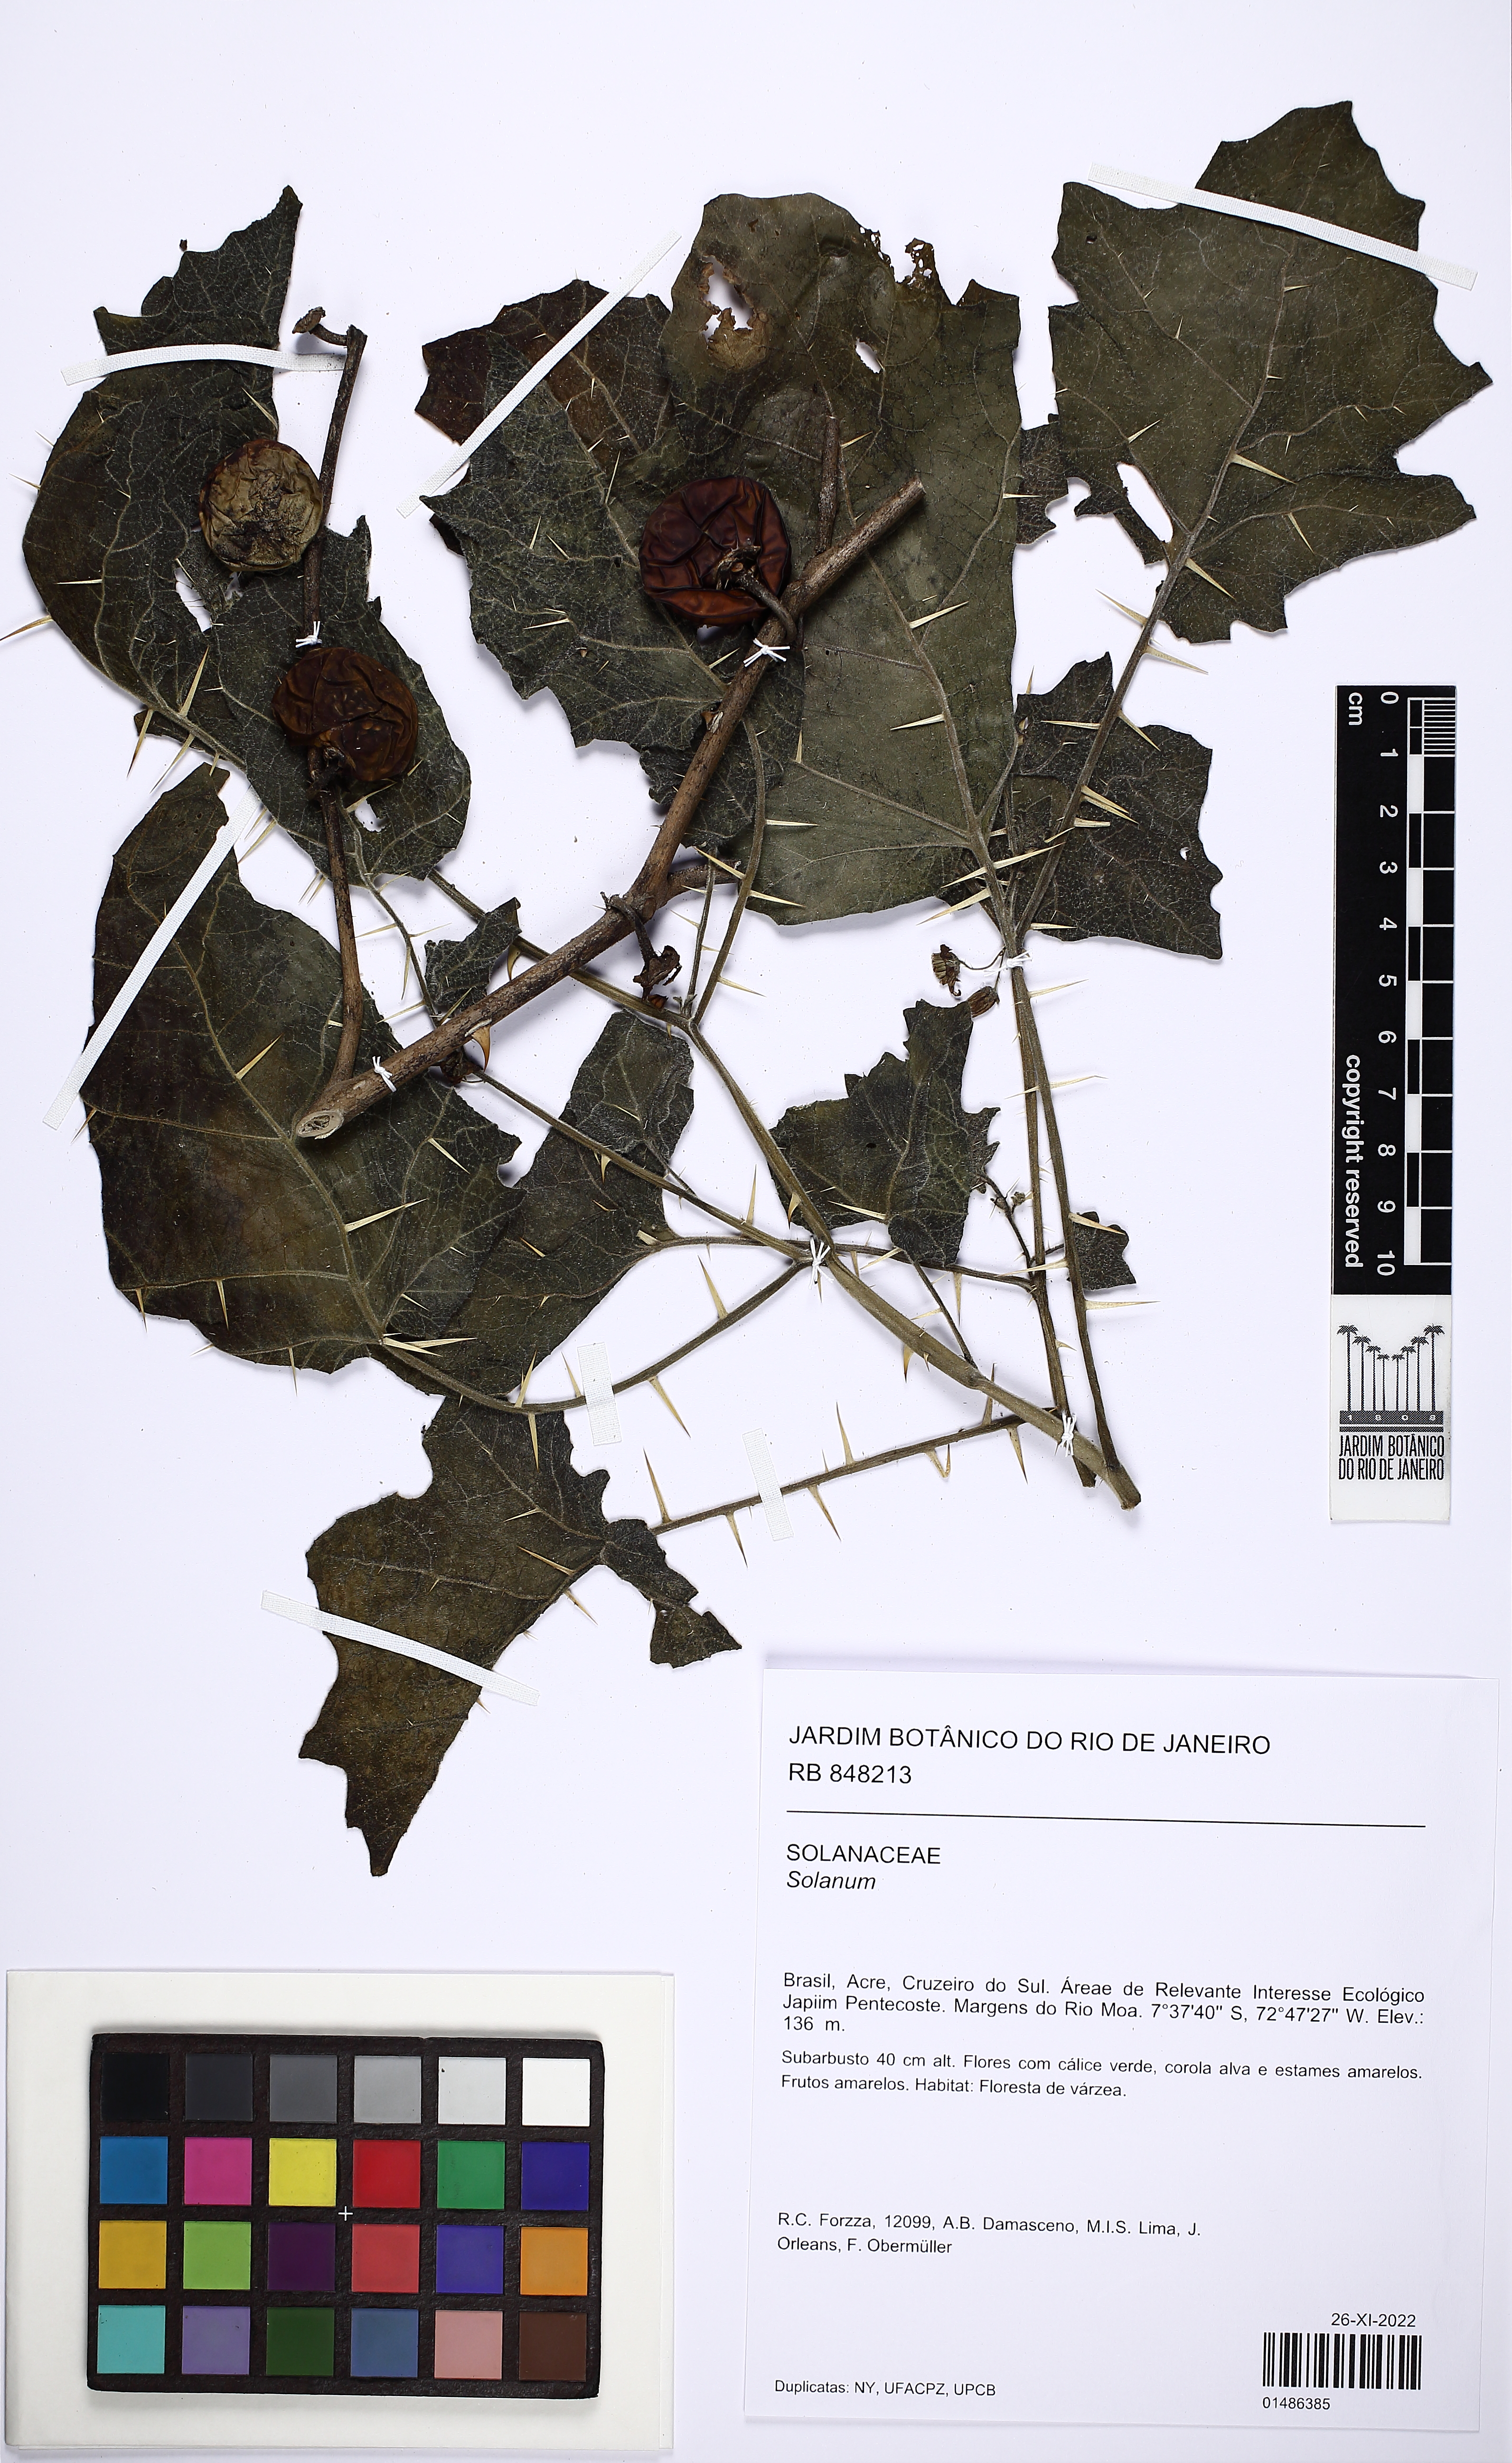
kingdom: Plantae
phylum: Tracheophyta
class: Magnoliopsida
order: Solanales
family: Solanaceae
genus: Solanum
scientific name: Solanum
